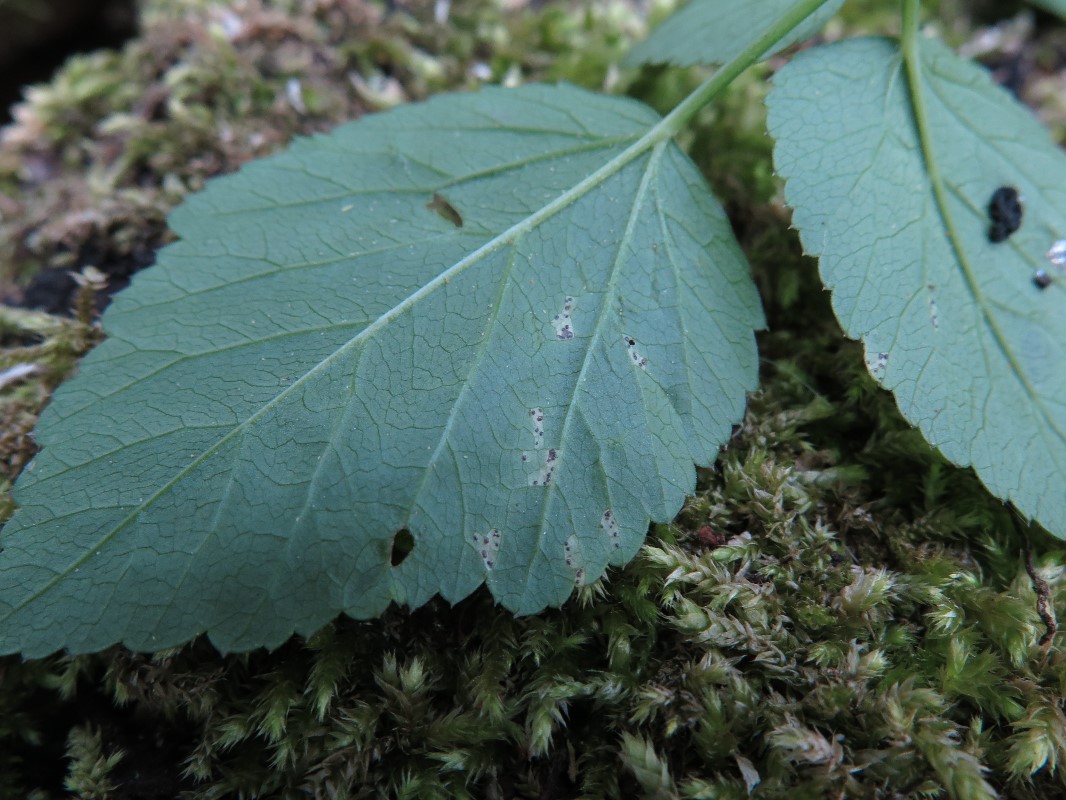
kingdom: Fungi
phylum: Ascomycota
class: Dothideomycetes
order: Mycosphaerellales
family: Mycosphaerellaceae
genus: Mycosphaerella
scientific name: Mycosphaerella podagrariae
